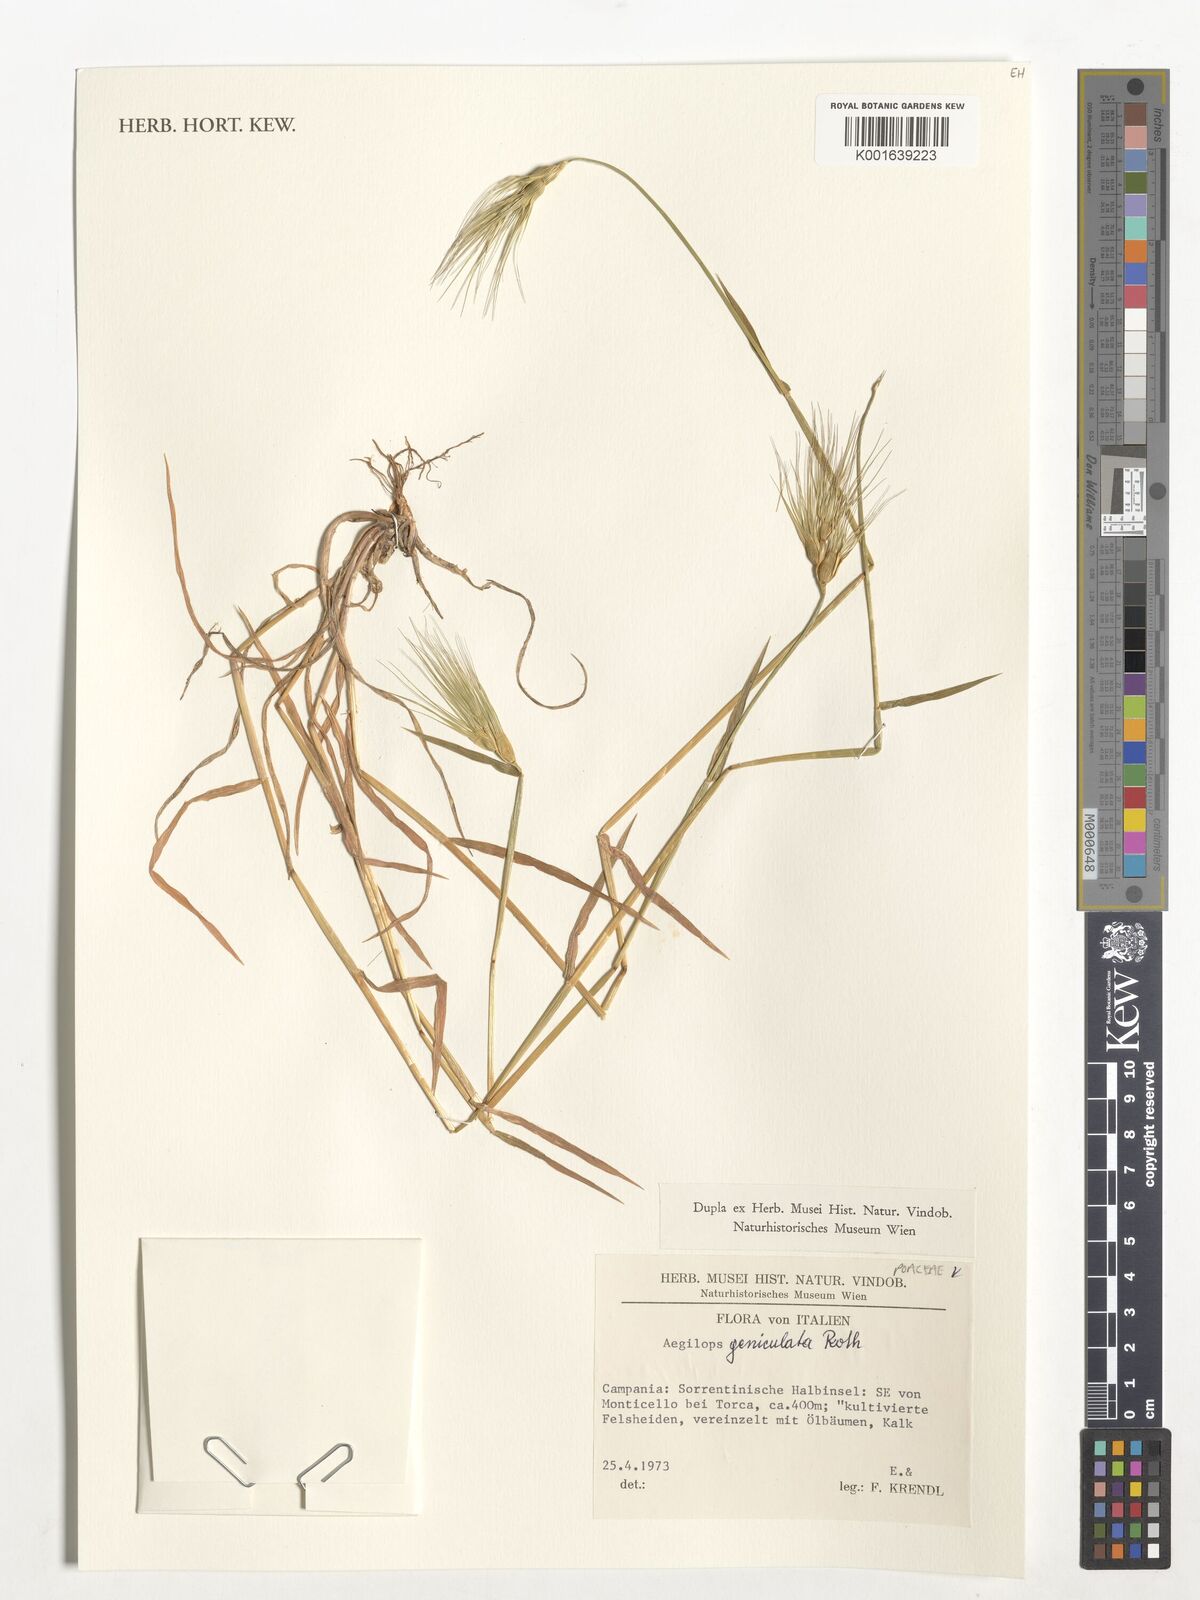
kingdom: Plantae
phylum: Tracheophyta
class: Liliopsida
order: Poales
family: Poaceae
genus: Aegilops
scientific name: Aegilops geniculata
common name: Ovate goat grass
